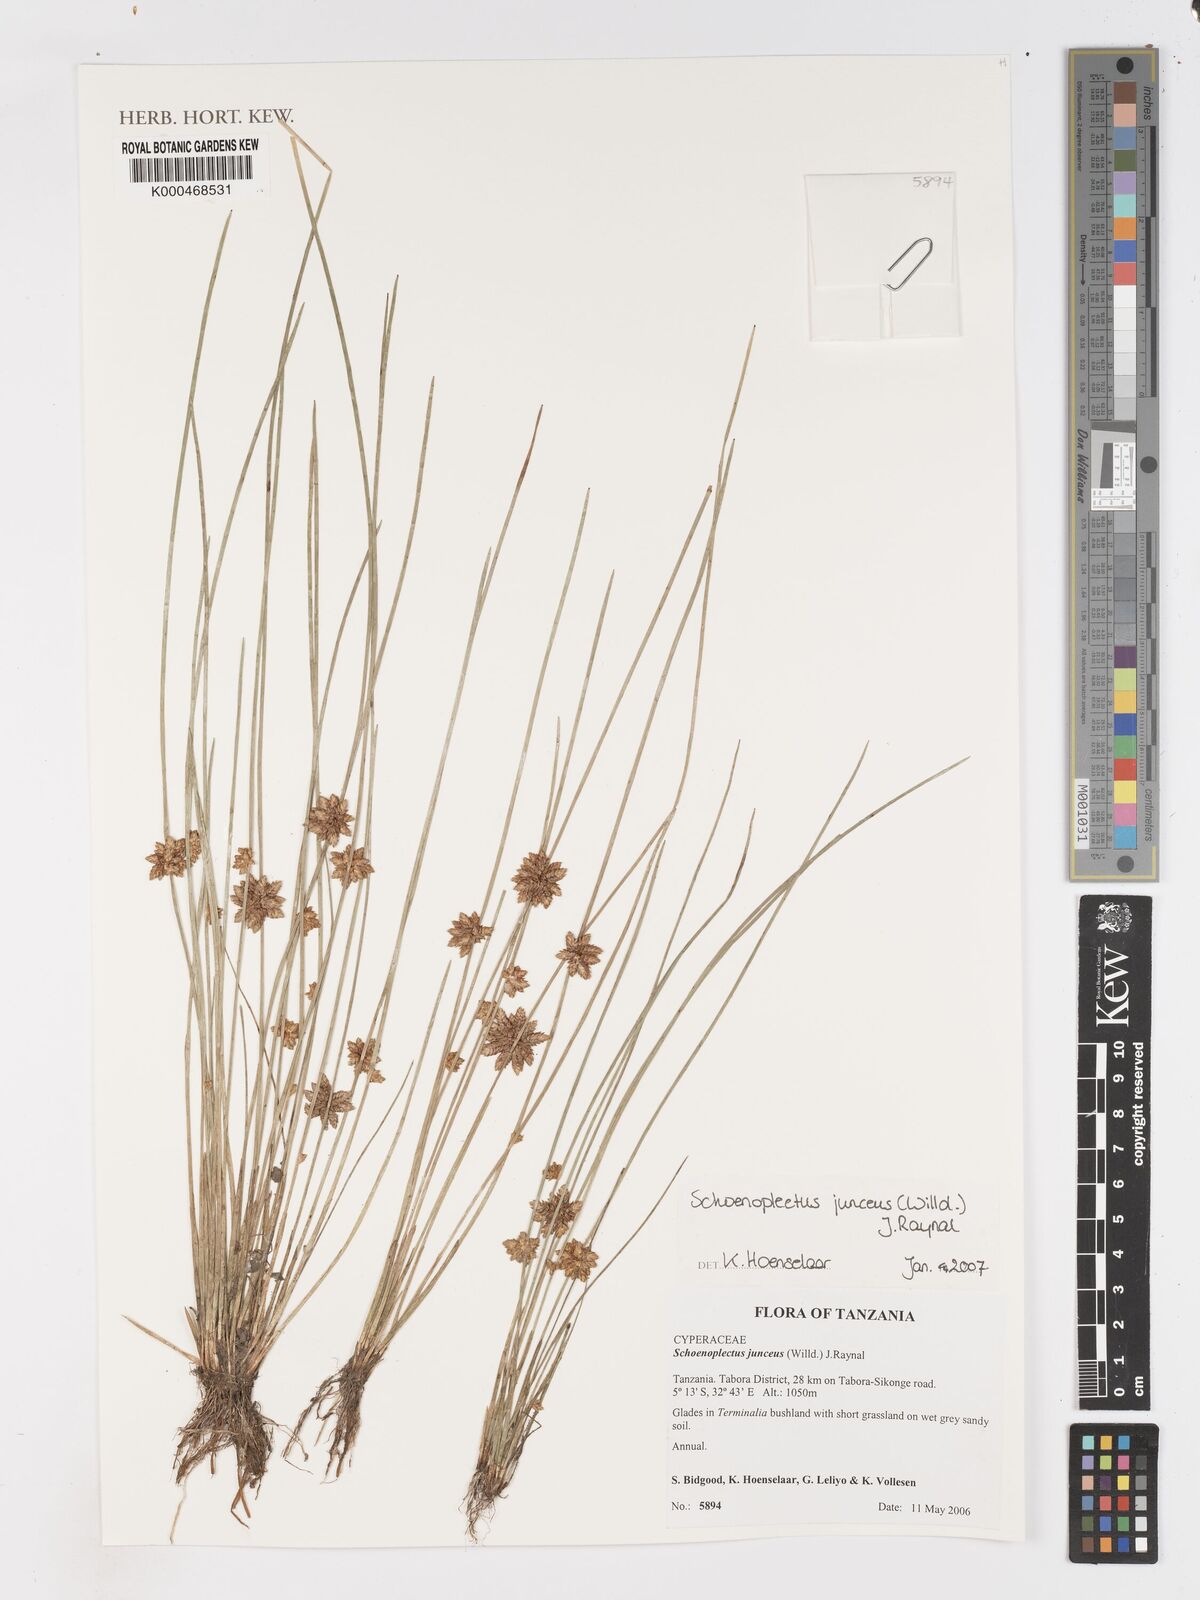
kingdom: Plantae
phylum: Tracheophyta
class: Liliopsida
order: Poales
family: Cyperaceae
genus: Schoenoplectiella
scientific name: Schoenoplectiella juncea
